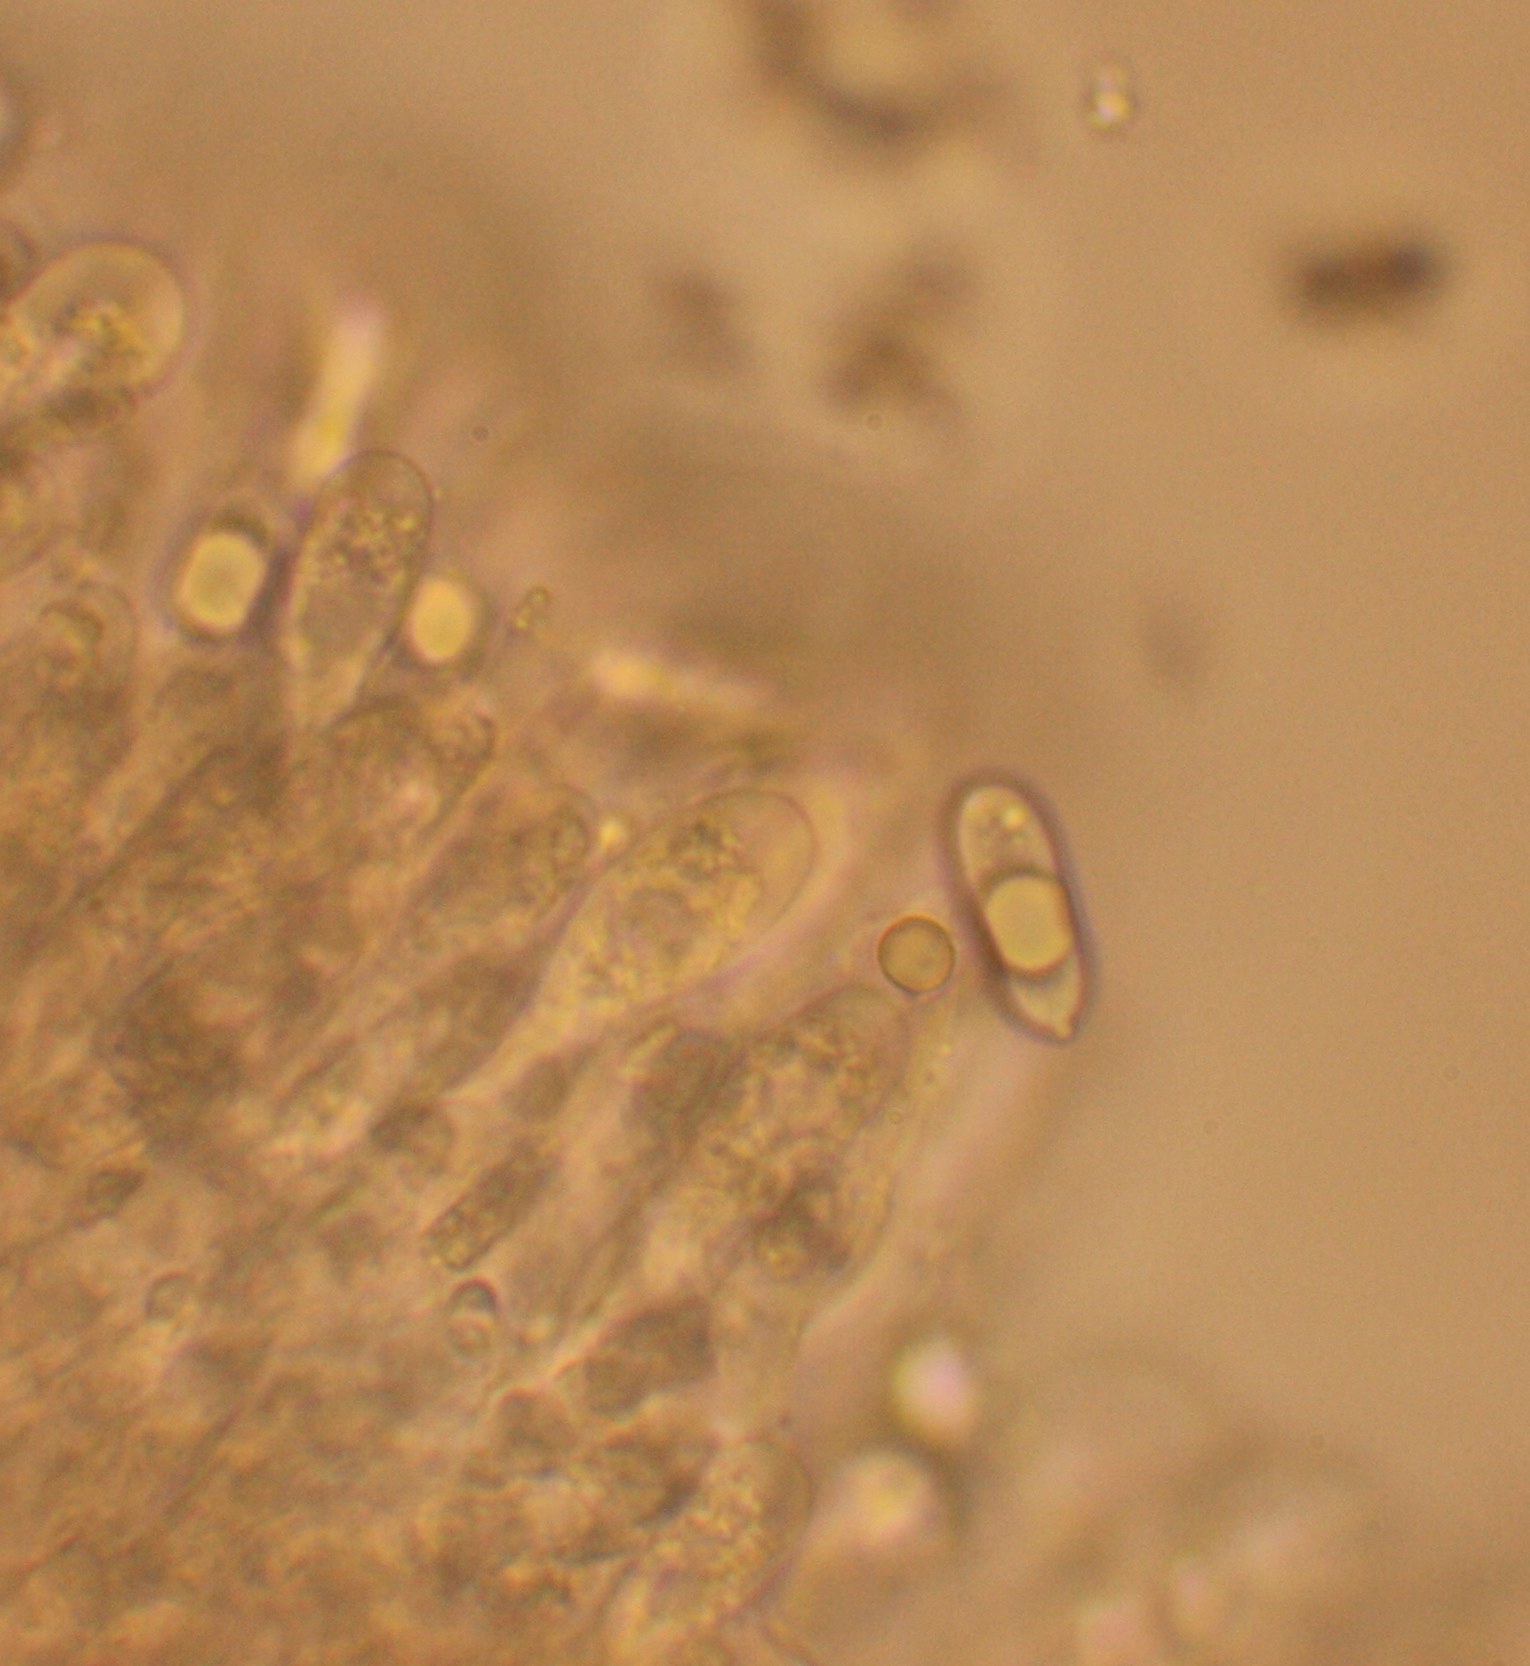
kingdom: Fungi
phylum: Basidiomycota
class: Agaricomycetes
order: Agaricales
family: Mycenaceae
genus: Mycena
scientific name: Mycena belliae
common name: tagrørs-huesvamp
